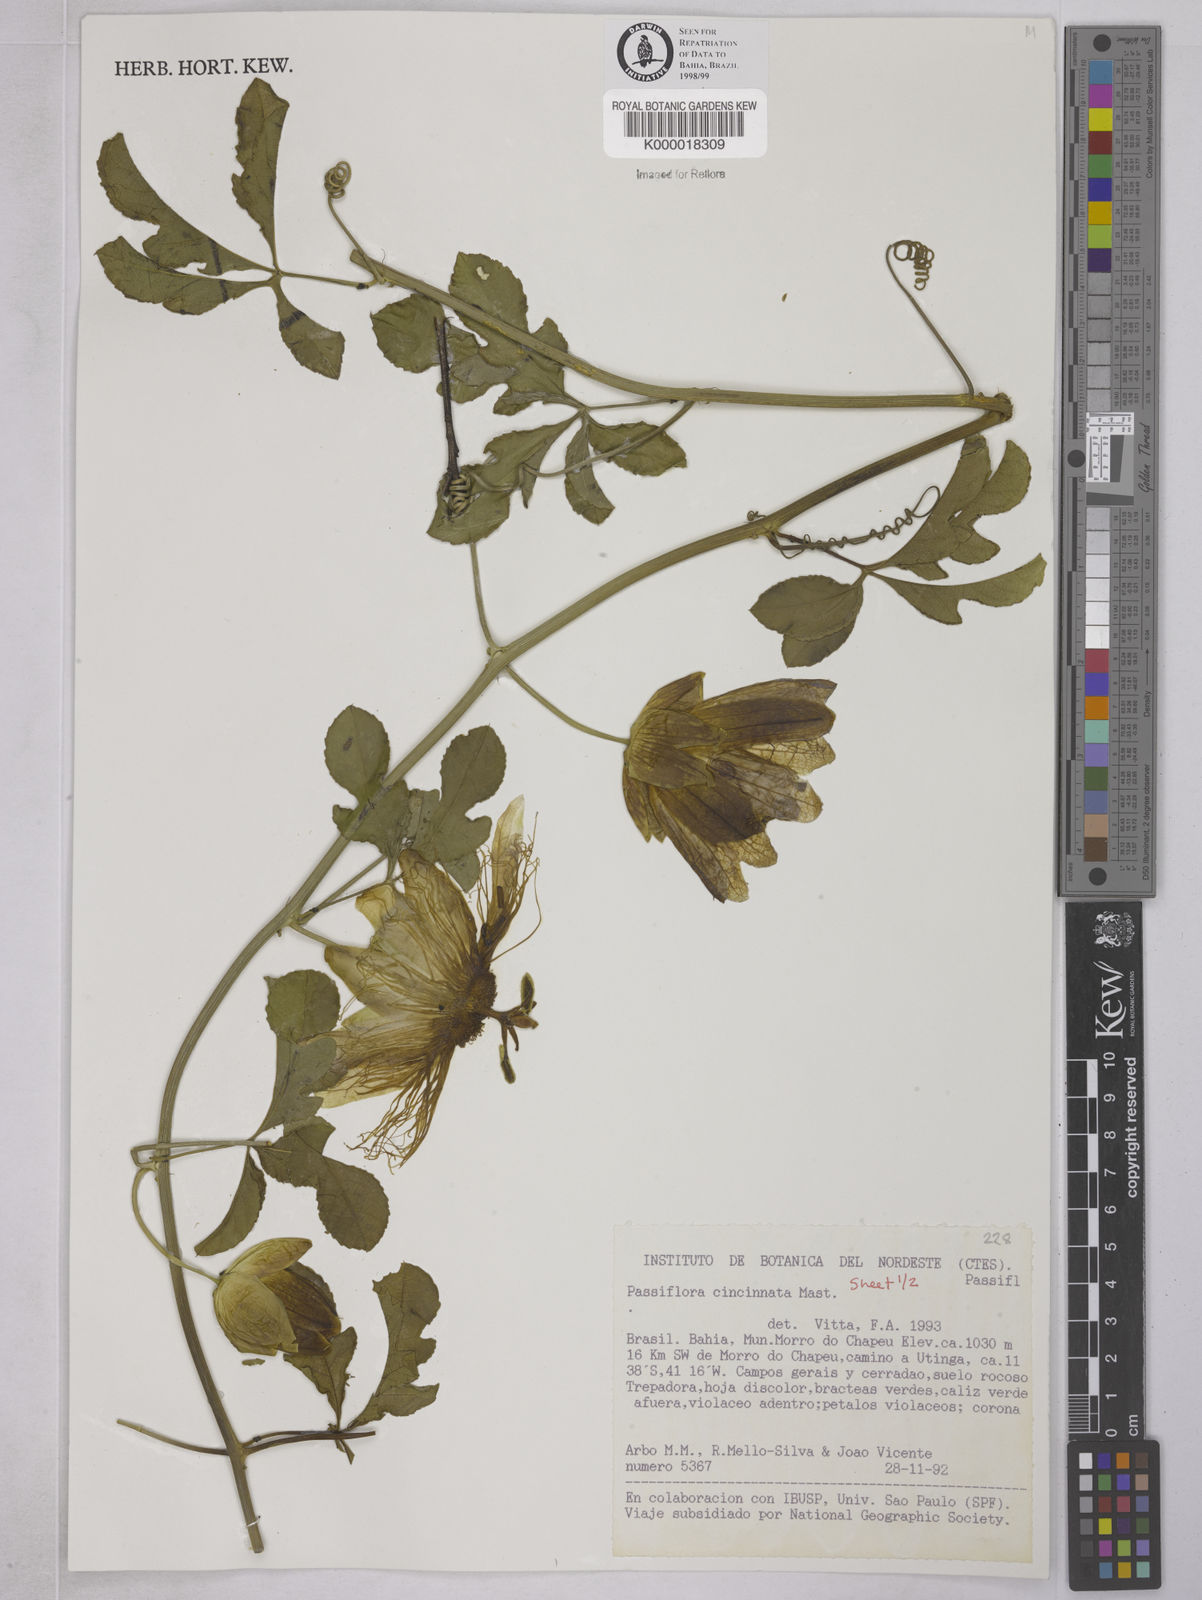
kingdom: Plantae
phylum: Tracheophyta
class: Magnoliopsida
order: Malpighiales
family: Passifloraceae
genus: Passiflora
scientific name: Passiflora cincinnata
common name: Crato passionvine
